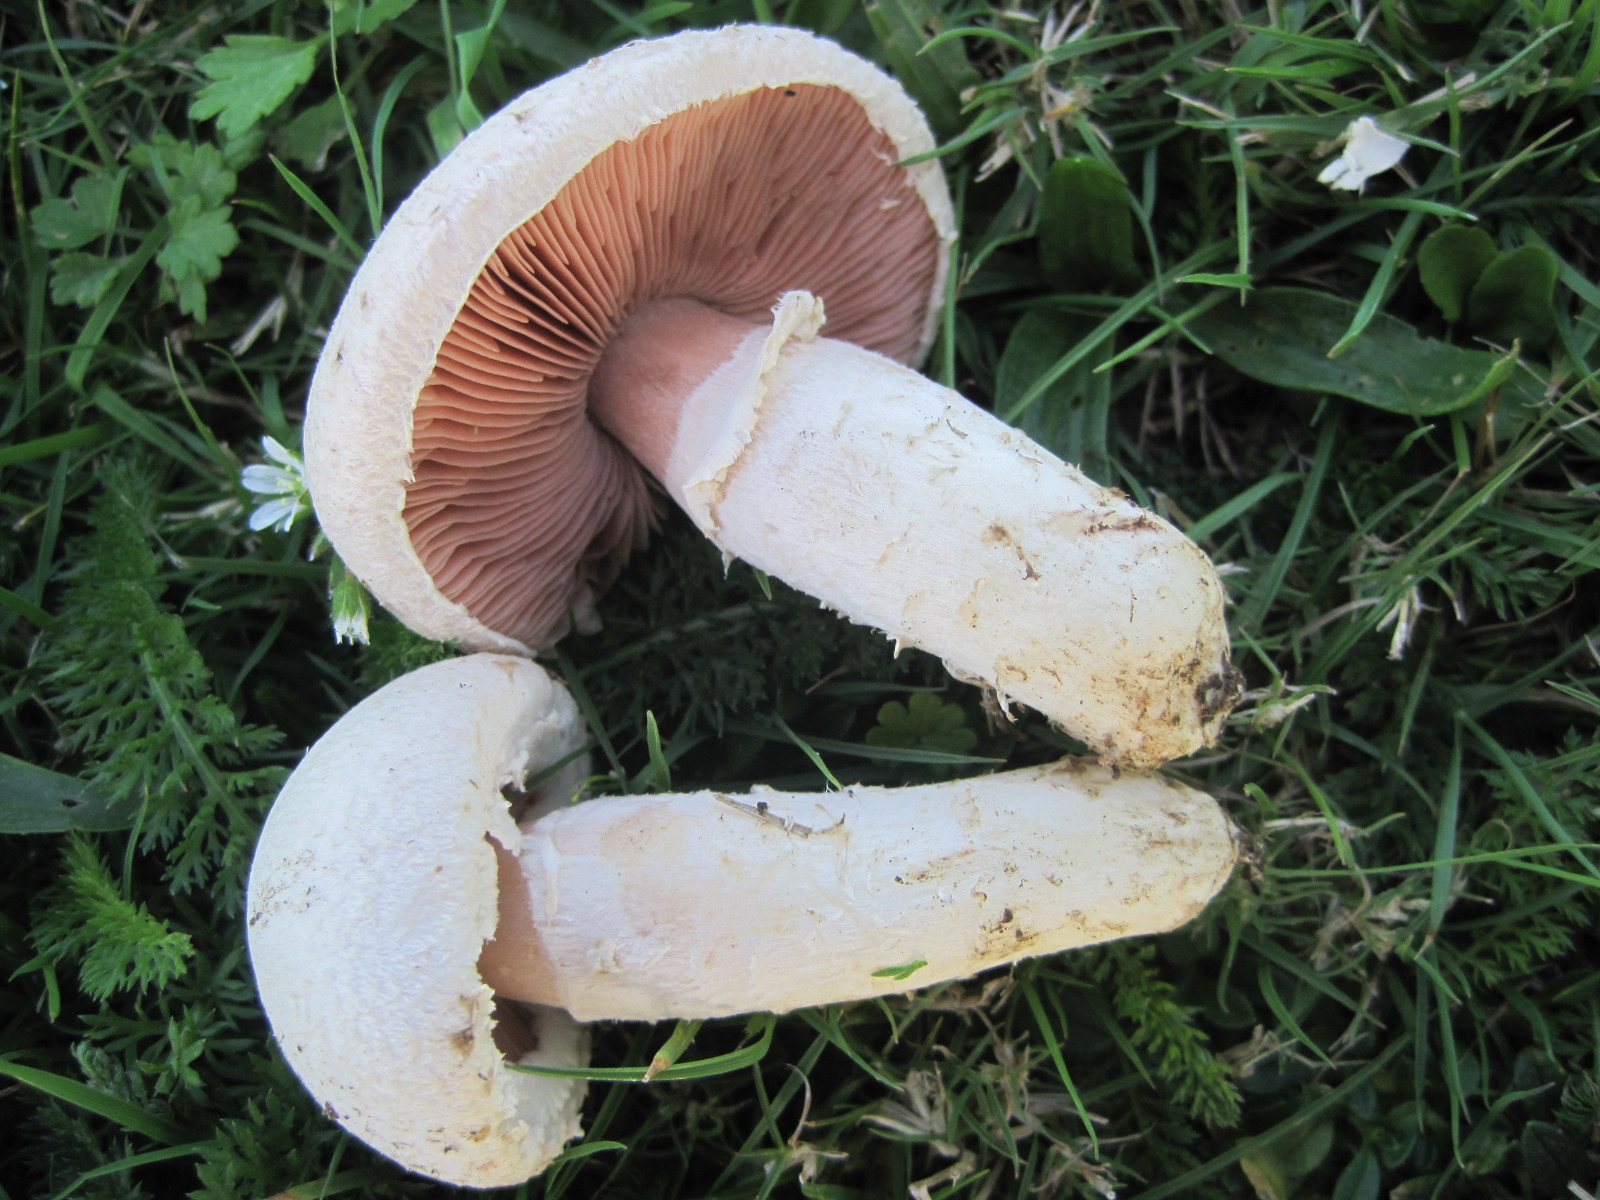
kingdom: Fungi
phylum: Basidiomycota
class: Agaricomycetes
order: Agaricales
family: Agaricaceae
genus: Agaricus
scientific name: Agaricus campestris
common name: mark-champignon
